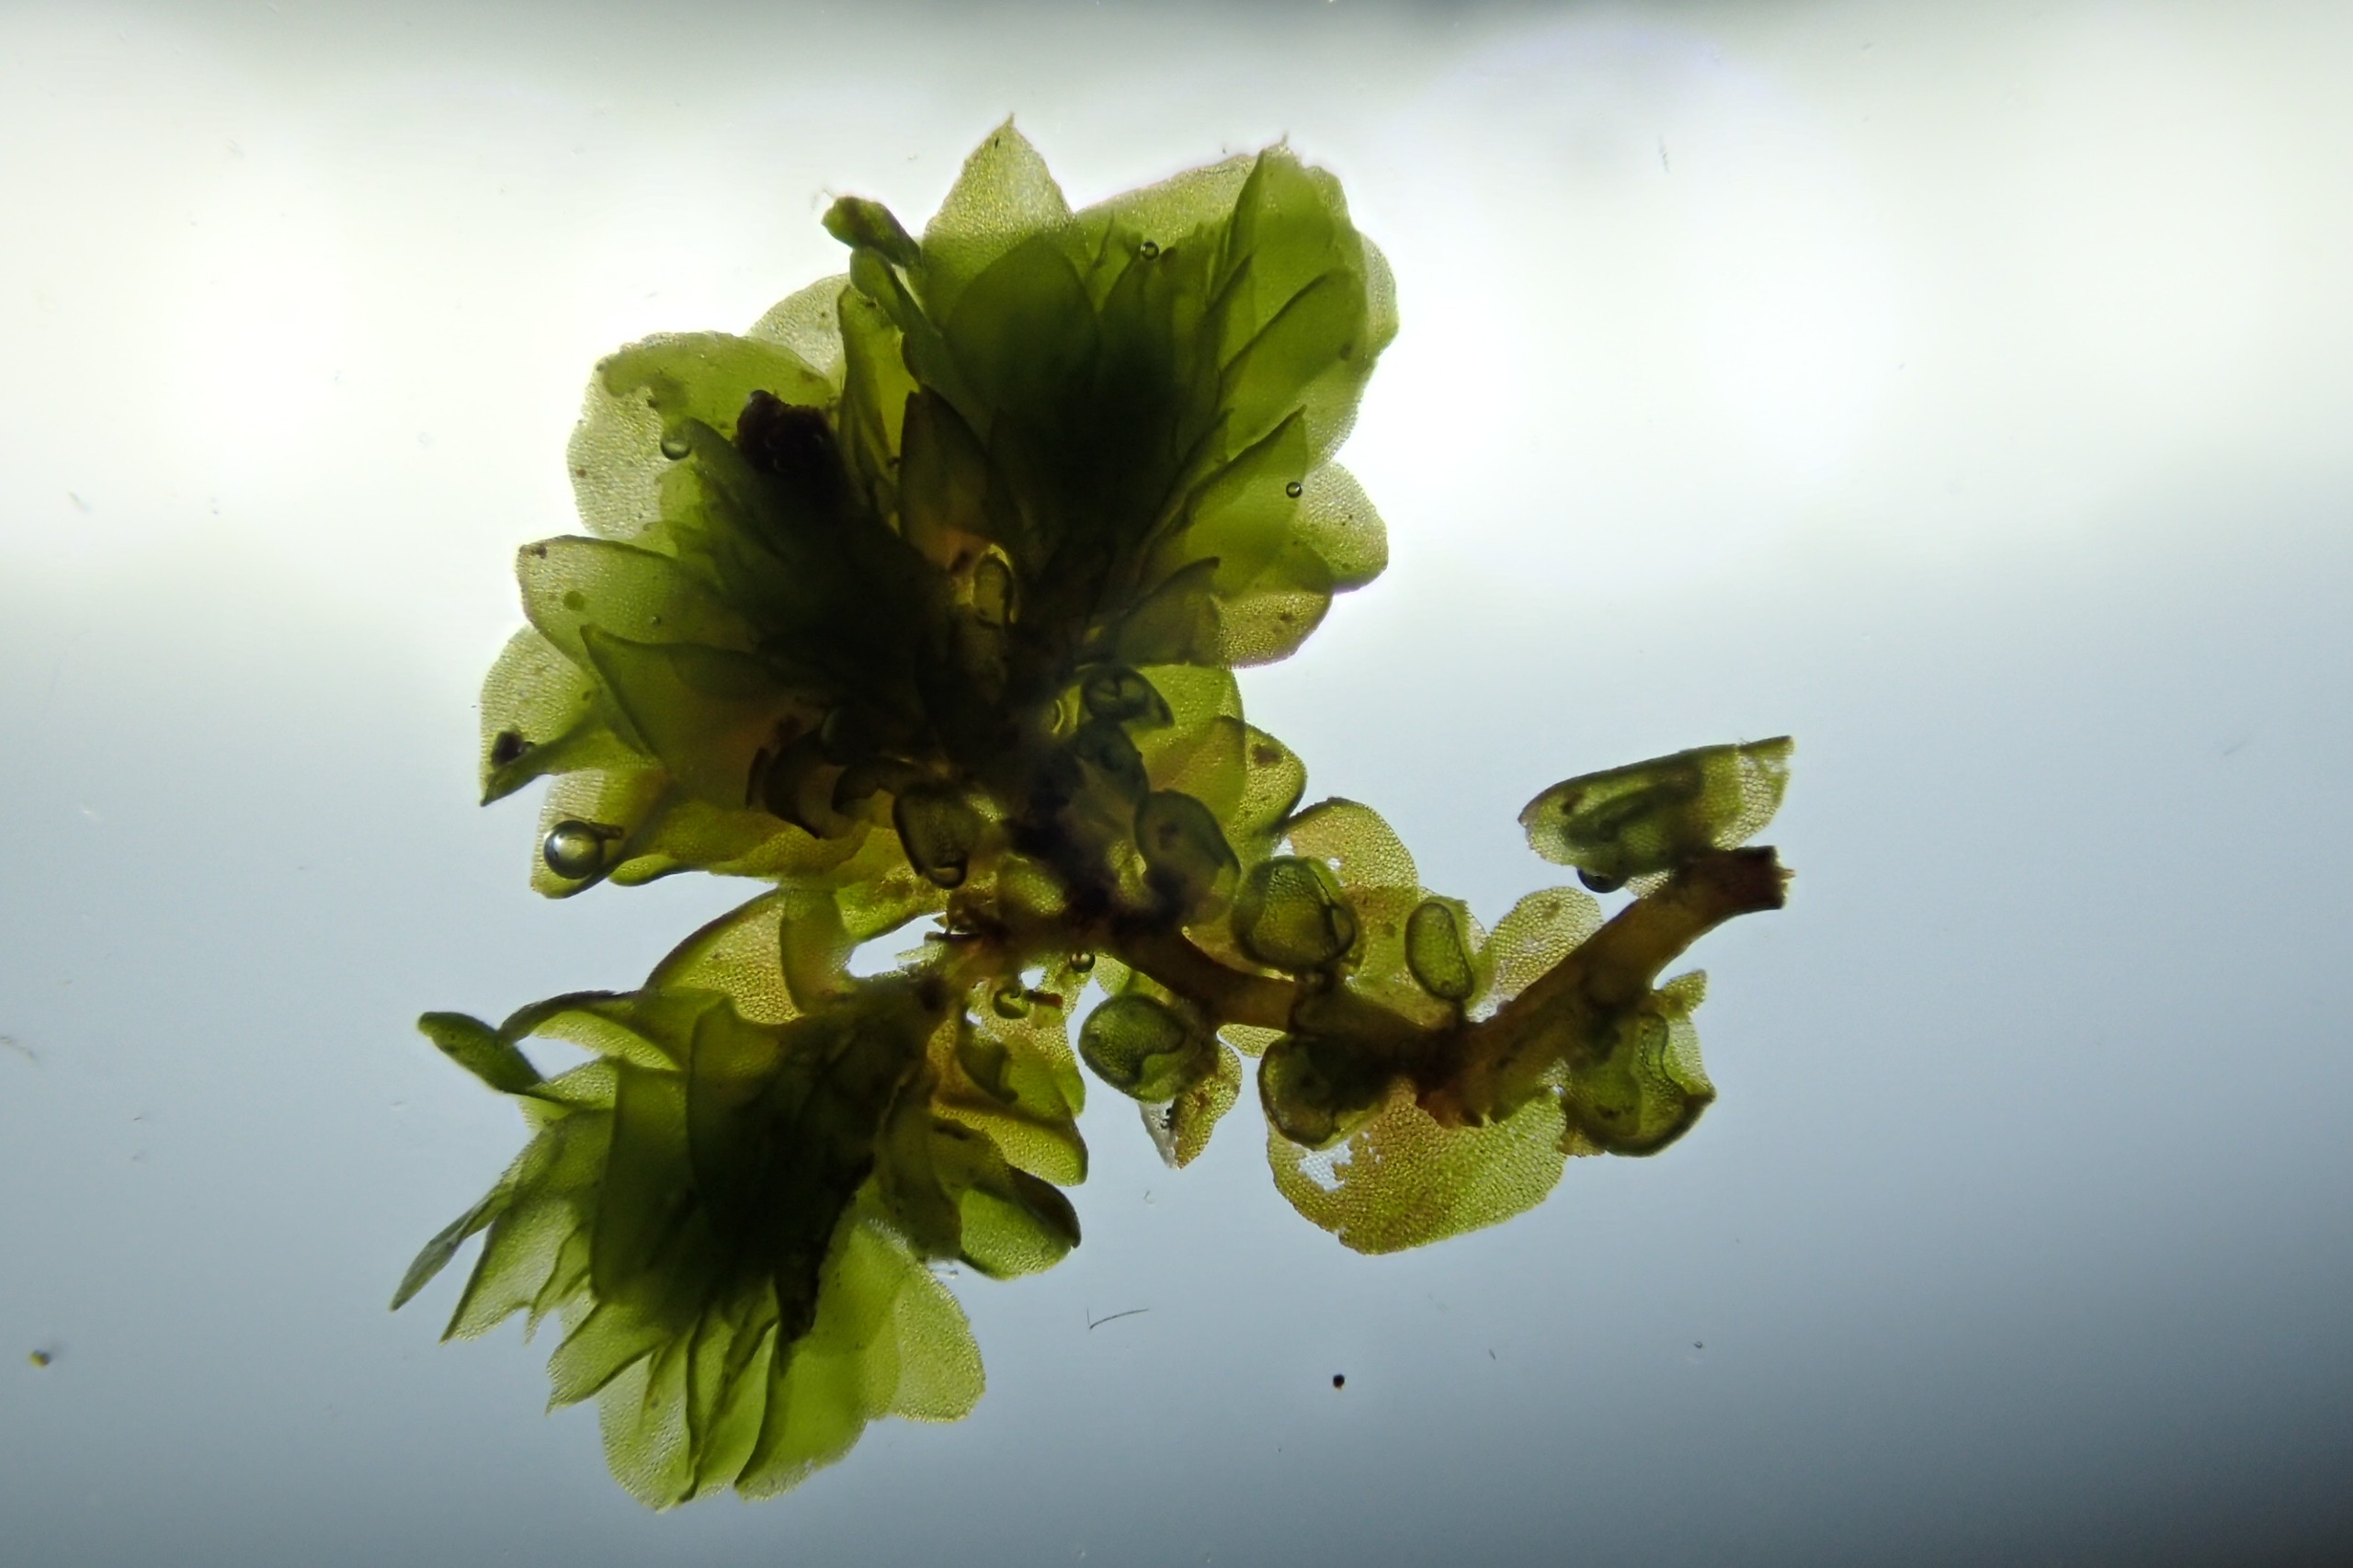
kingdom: Plantae
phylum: Marchantiophyta
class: Jungermanniopsida
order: Porellales
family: Frullaniaceae
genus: Frullania
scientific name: Frullania dilatata
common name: Mat bronzemos
